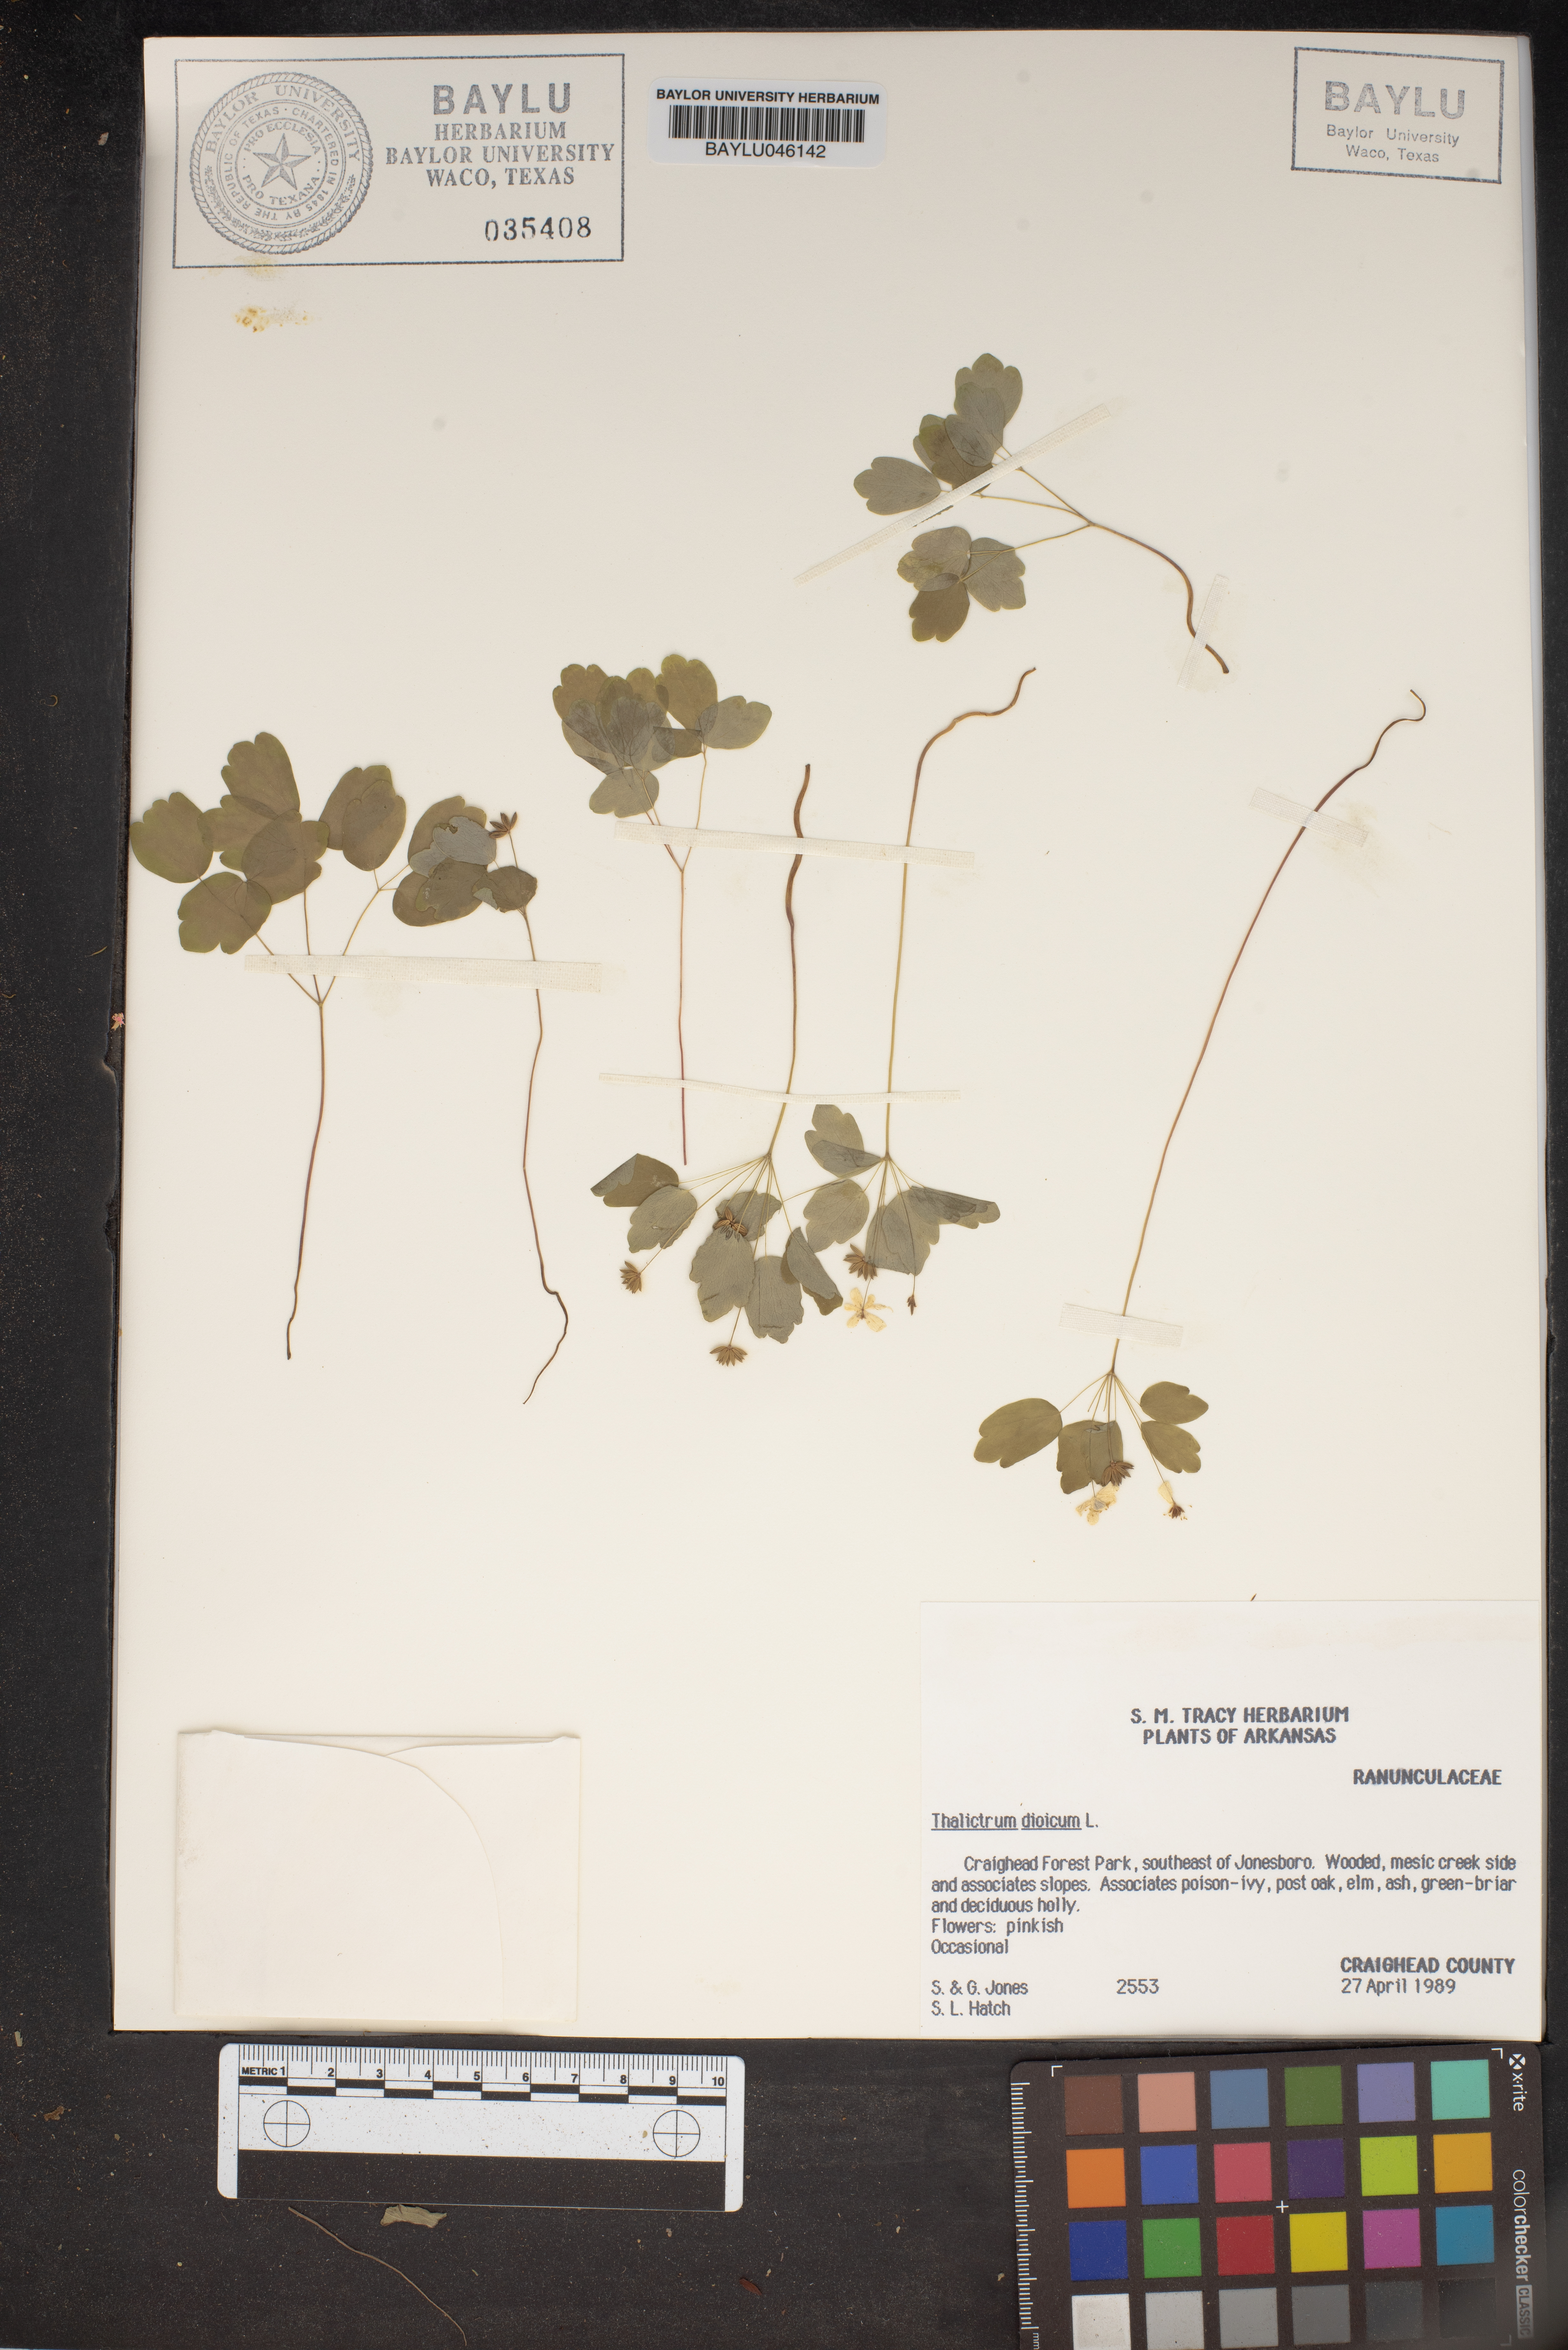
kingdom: Plantae
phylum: Tracheophyta
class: Magnoliopsida
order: Ranunculales
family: Ranunculaceae
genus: Thalictrum
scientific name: Thalictrum dioicum
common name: Early meadow-rue
